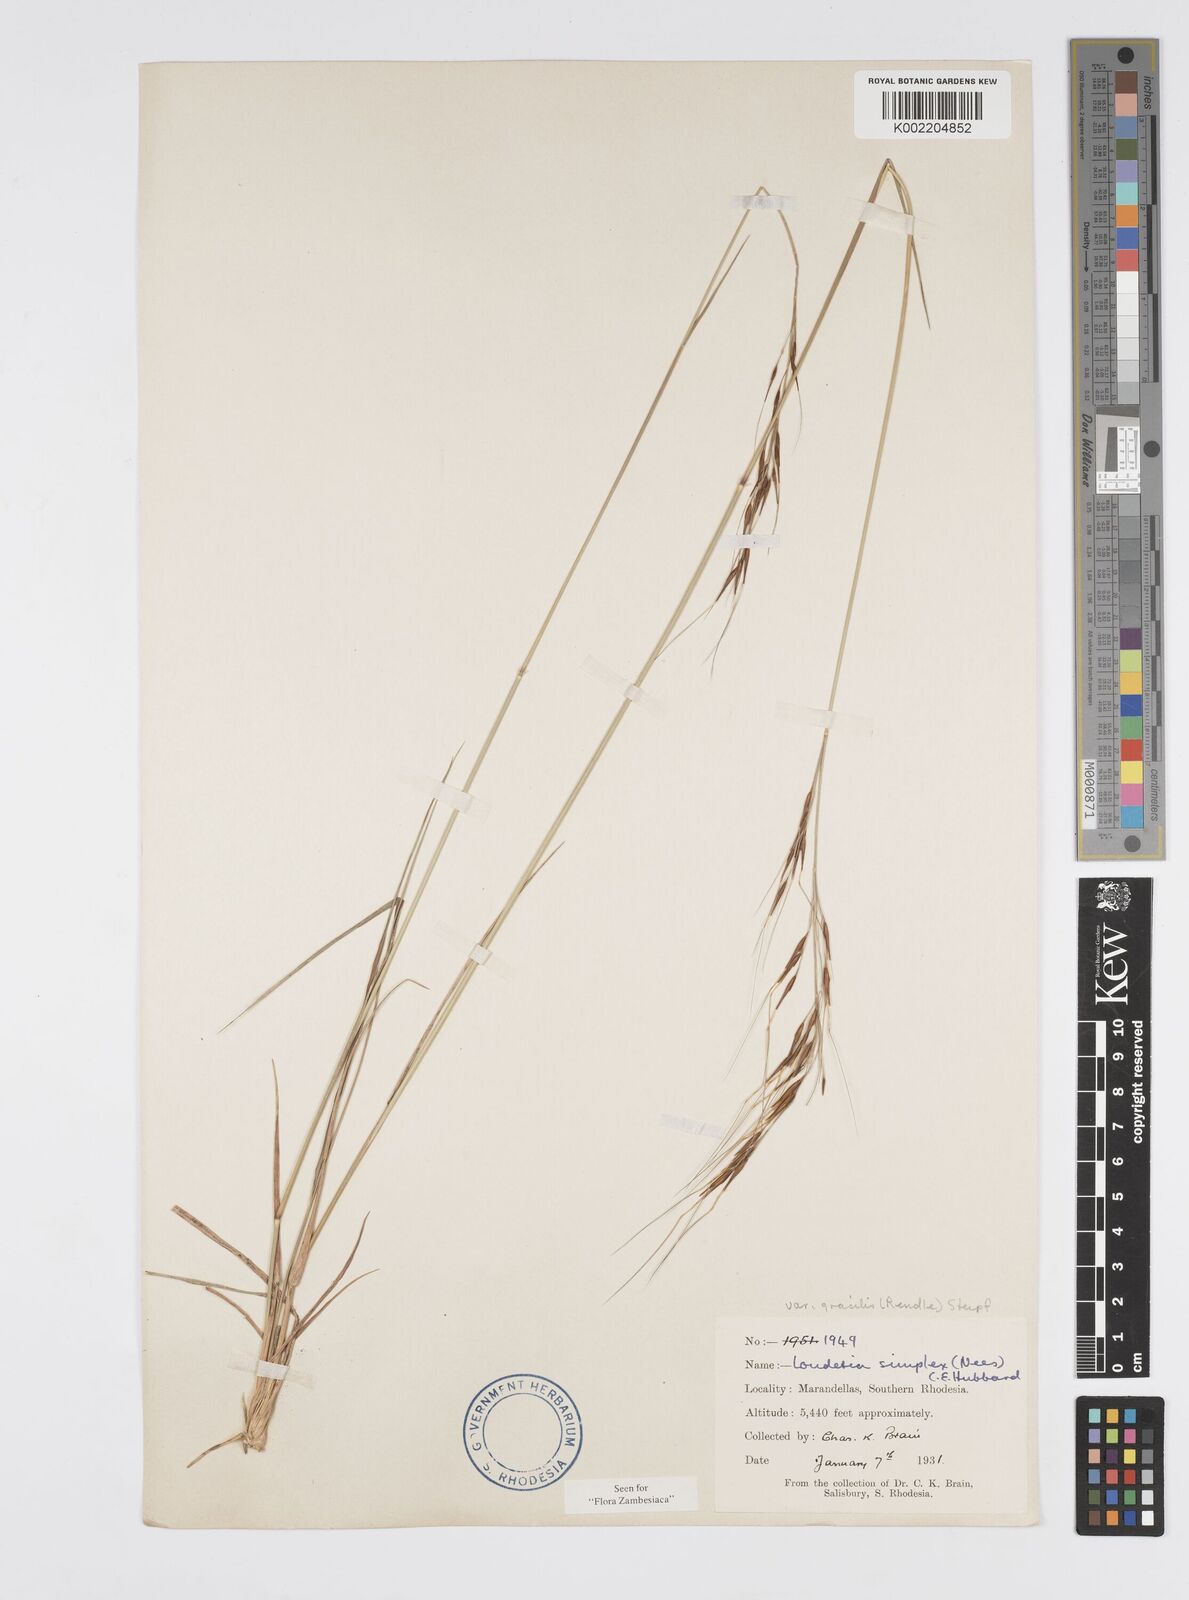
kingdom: Plantae
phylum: Tracheophyta
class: Liliopsida
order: Poales
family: Poaceae
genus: Loudetia
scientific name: Loudetia simplex
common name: Common russet grass
